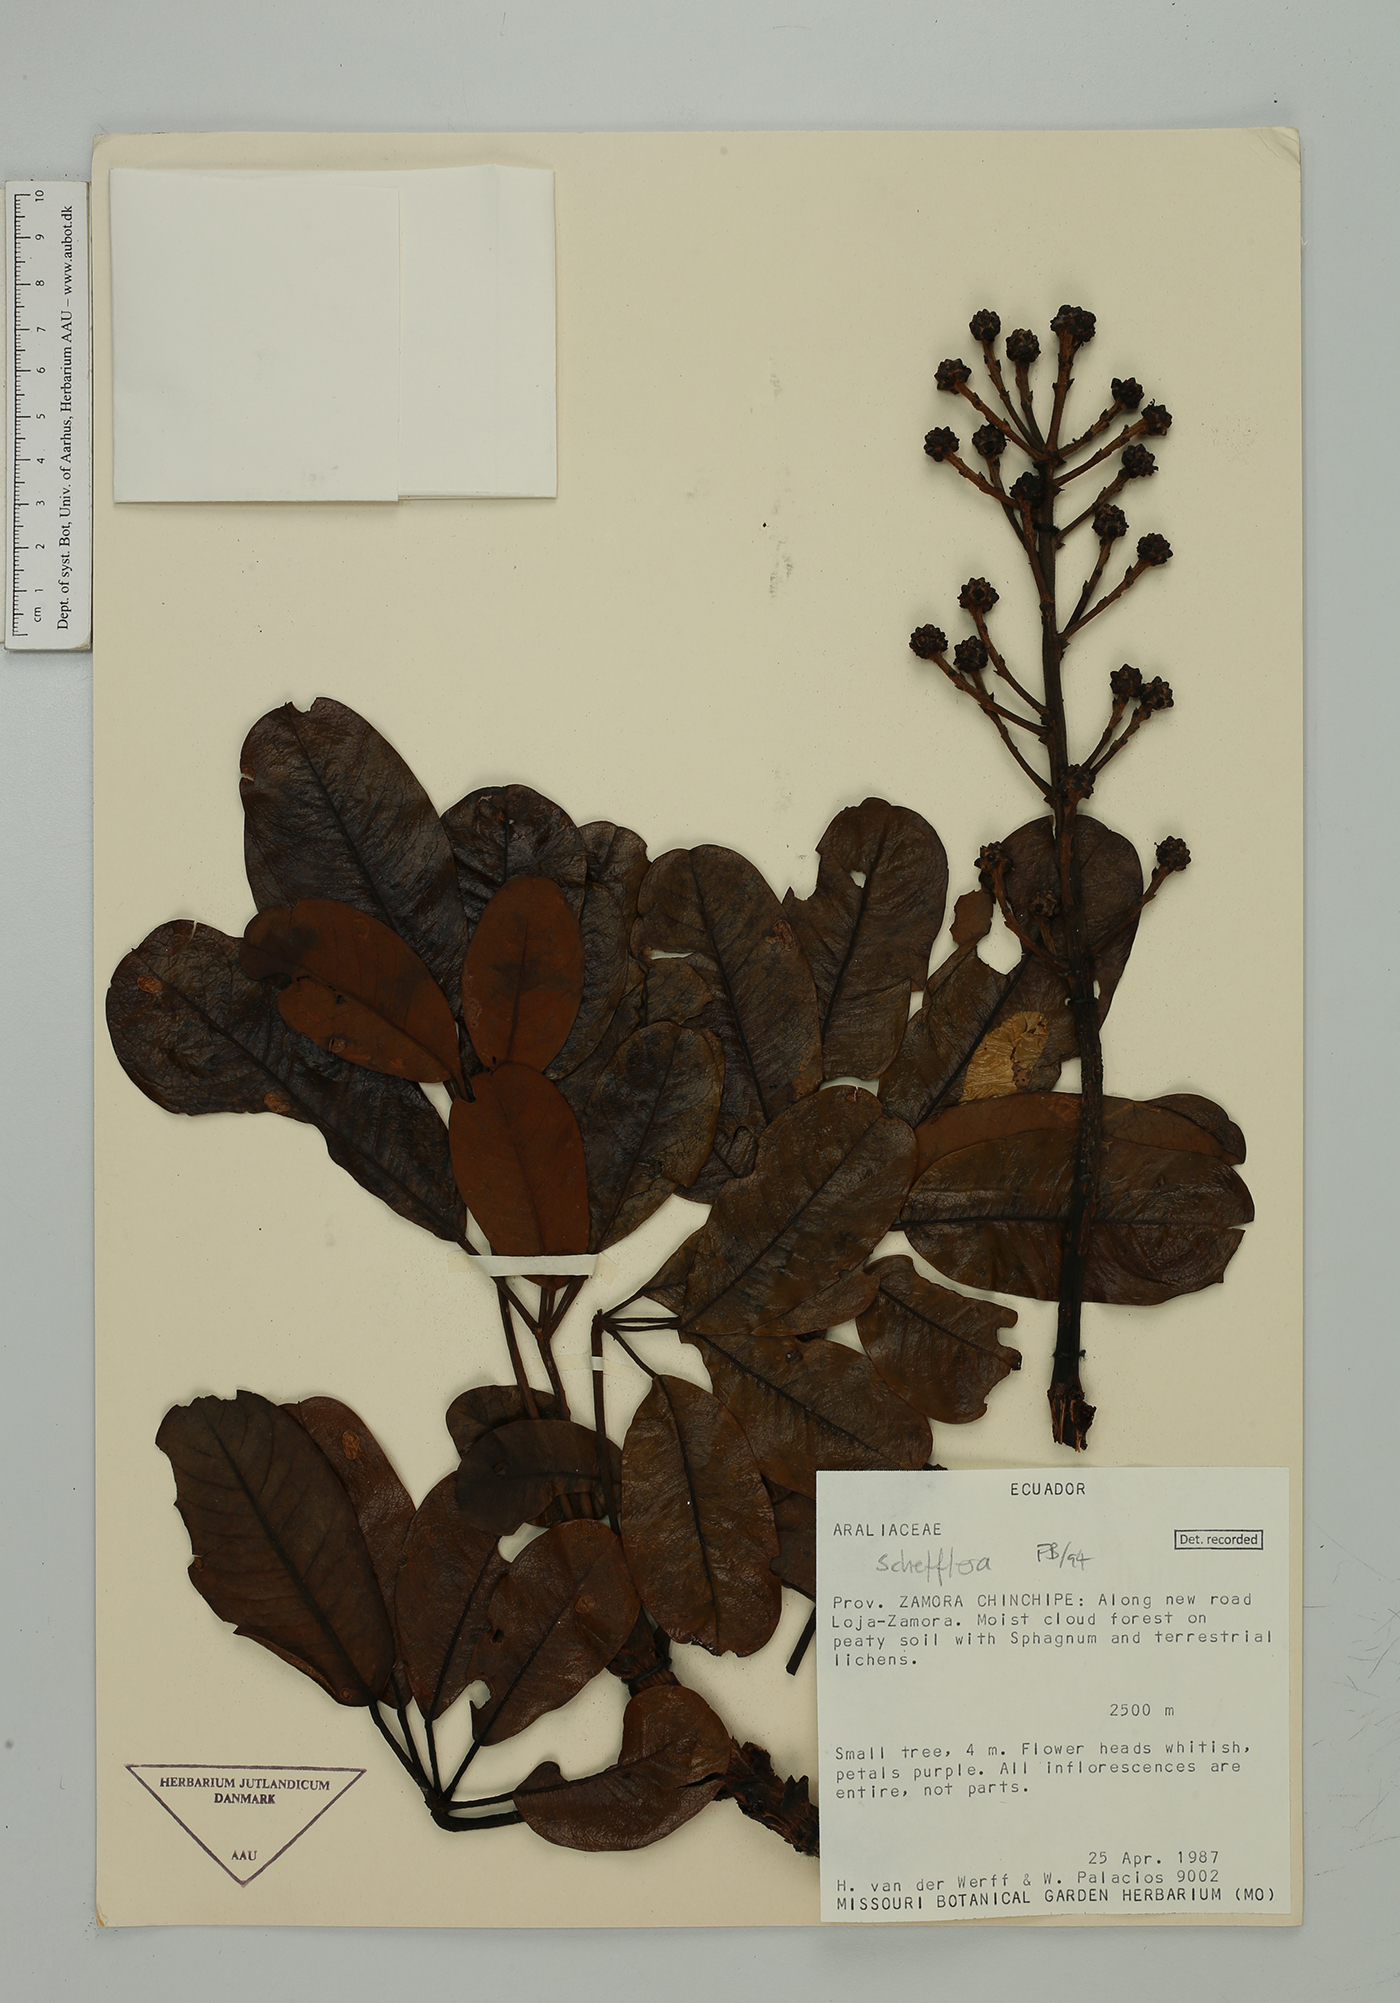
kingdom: Plantae
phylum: Tracheophyta
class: Magnoliopsida
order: Apiales
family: Araliaceae
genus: Cephalopanax
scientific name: Cephalopanax
